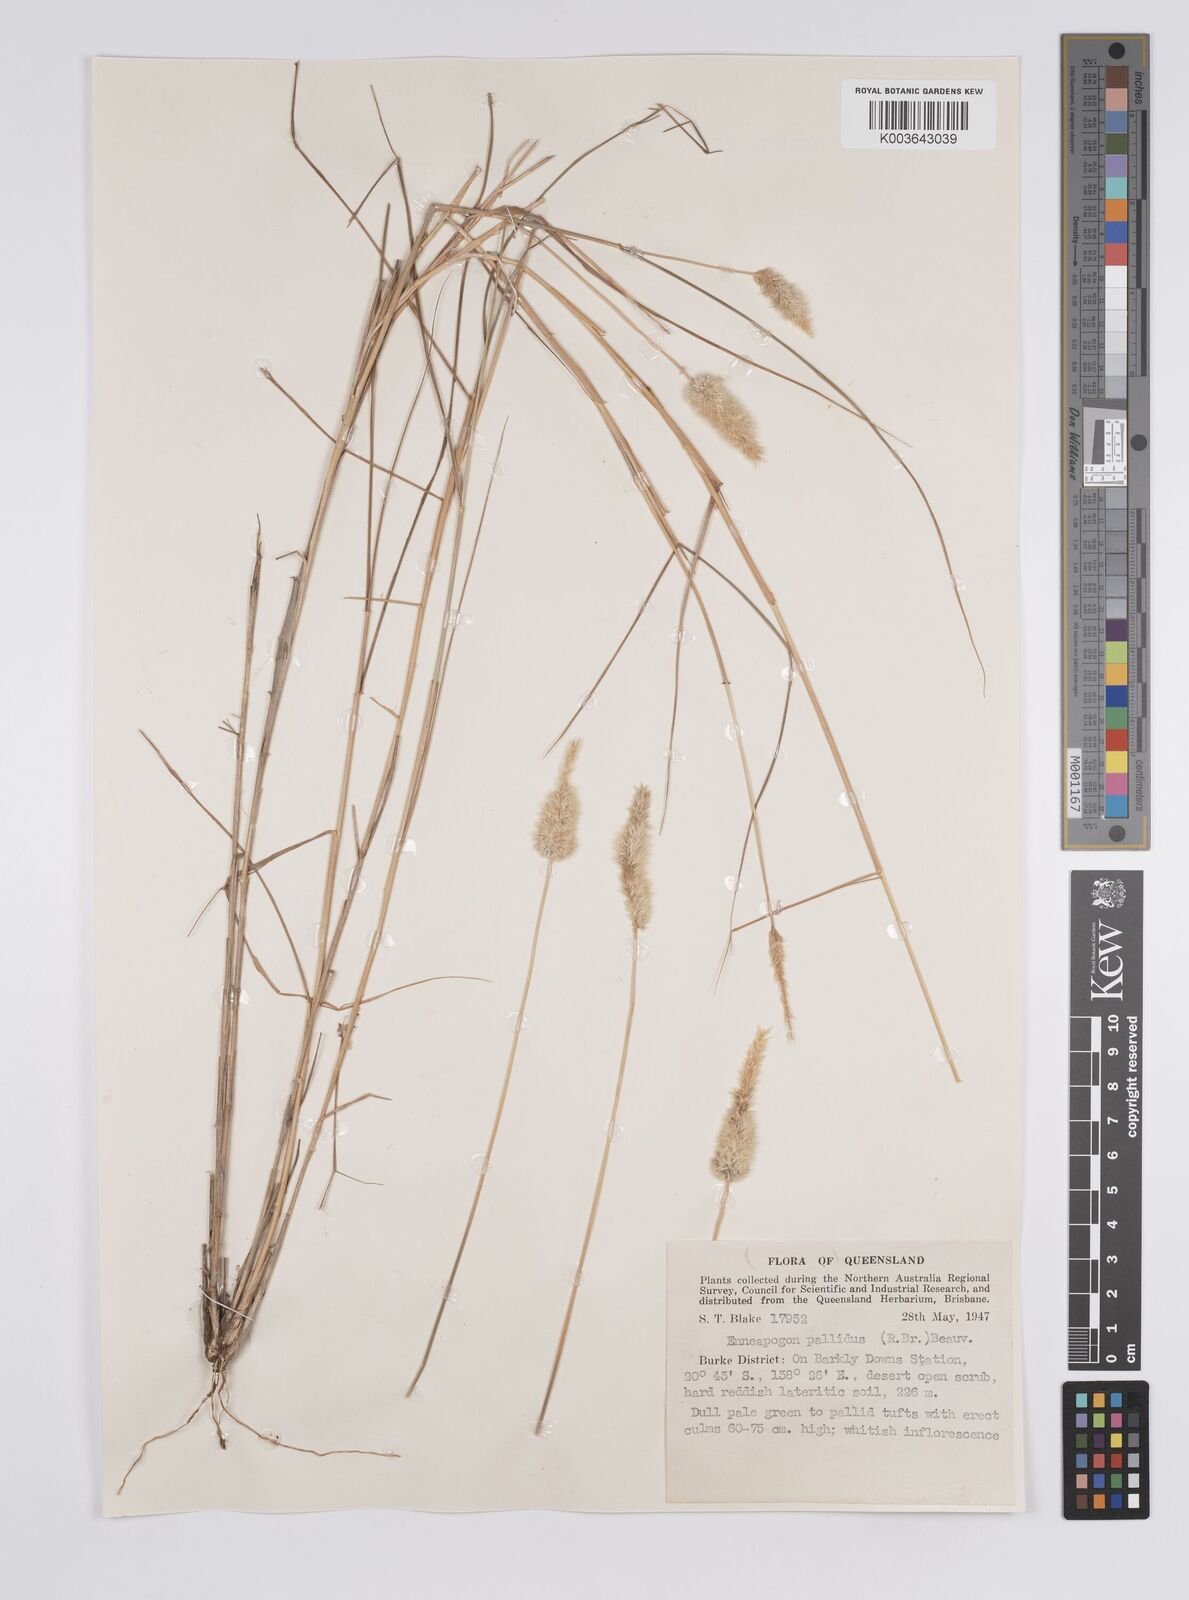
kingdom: Plantae
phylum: Tracheophyta
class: Liliopsida
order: Poales
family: Poaceae
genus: Enneapogon
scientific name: Enneapogon pallidus
